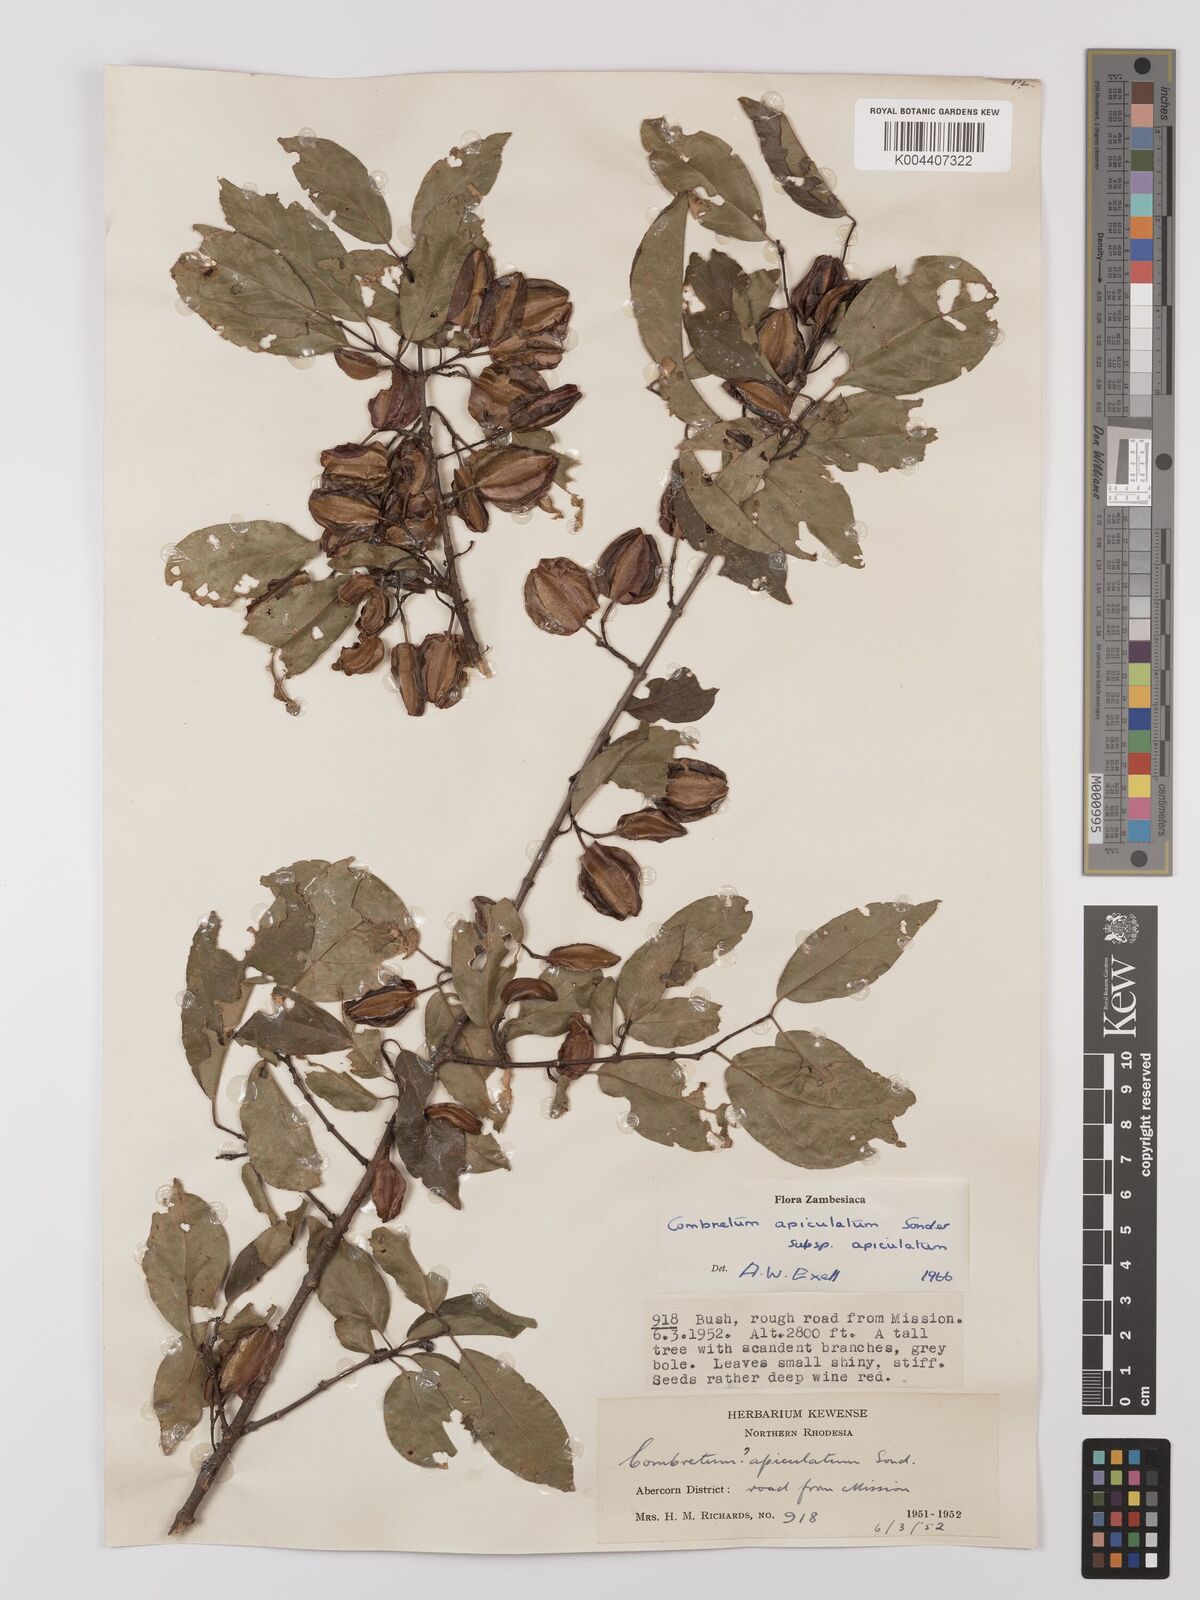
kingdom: Plantae
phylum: Tracheophyta
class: Magnoliopsida
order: Myrtales
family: Combretaceae
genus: Combretum
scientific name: Combretum apiculatum
